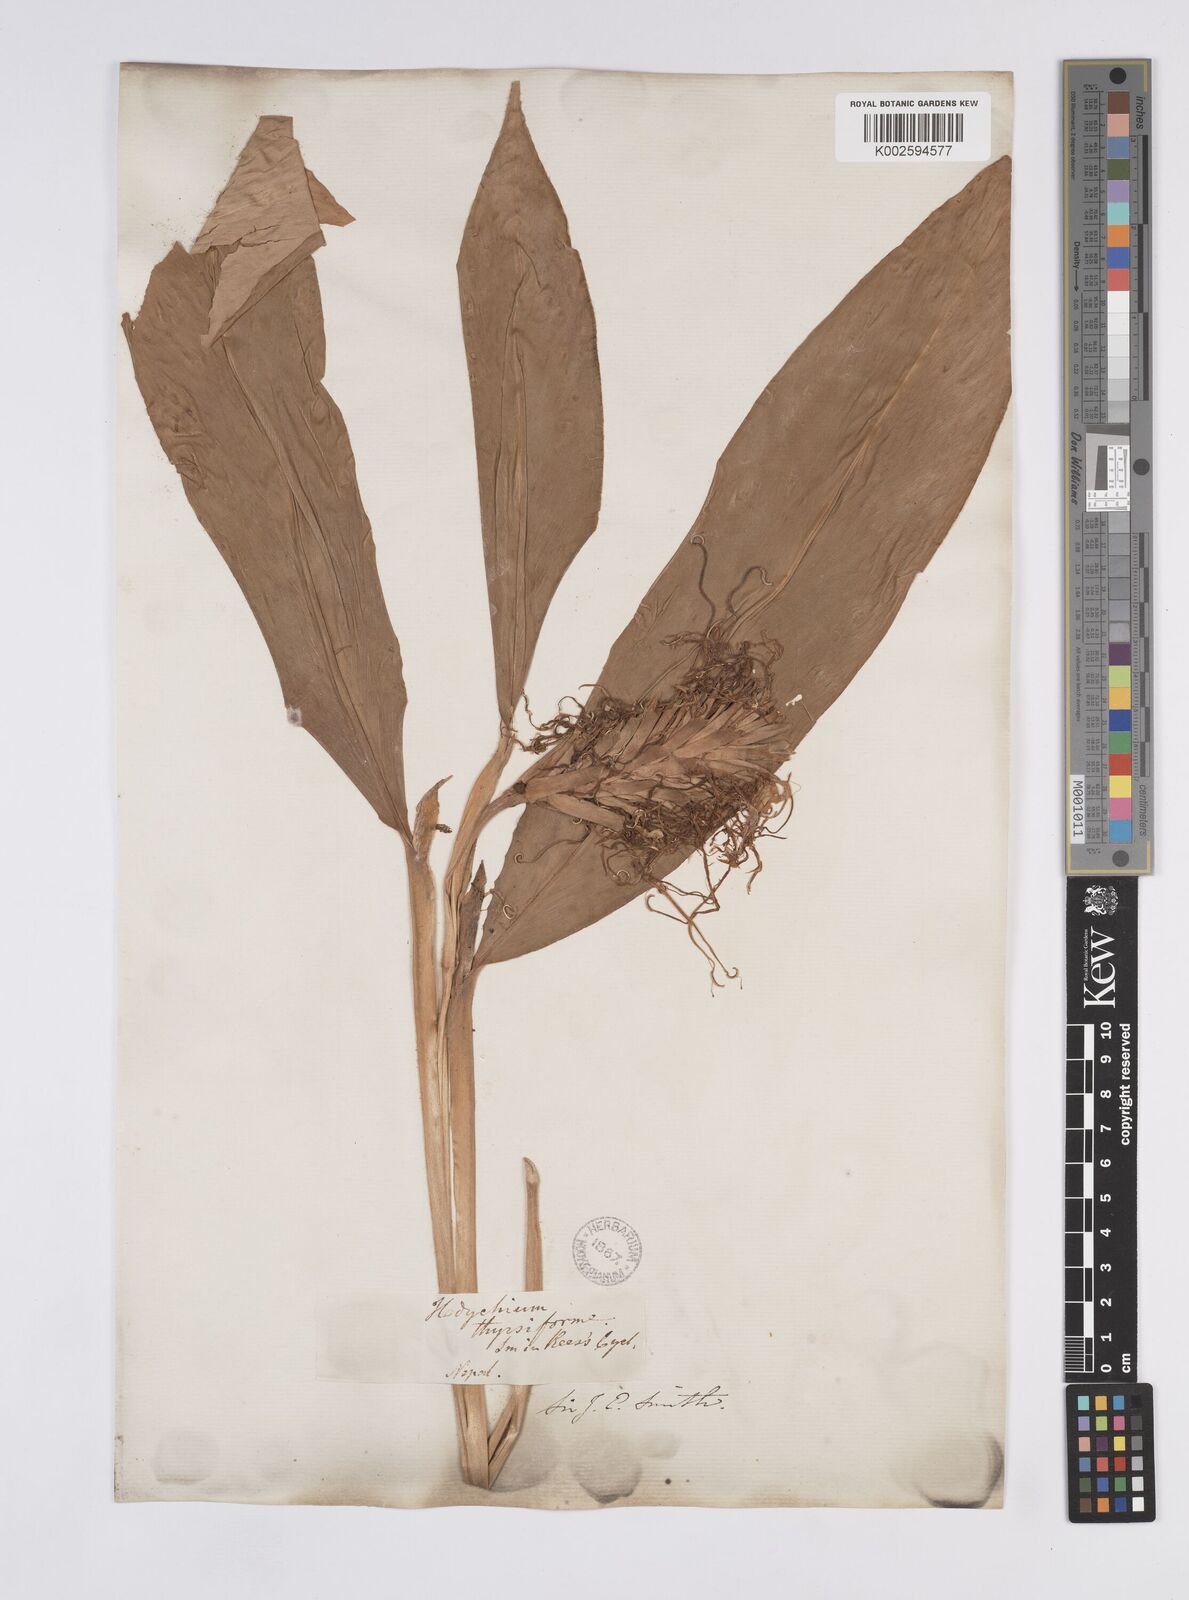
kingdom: Plantae
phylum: Tracheophyta
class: Liliopsida
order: Zingiberales
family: Zingiberaceae
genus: Hedychium
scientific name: Hedychium thyrsiforme
